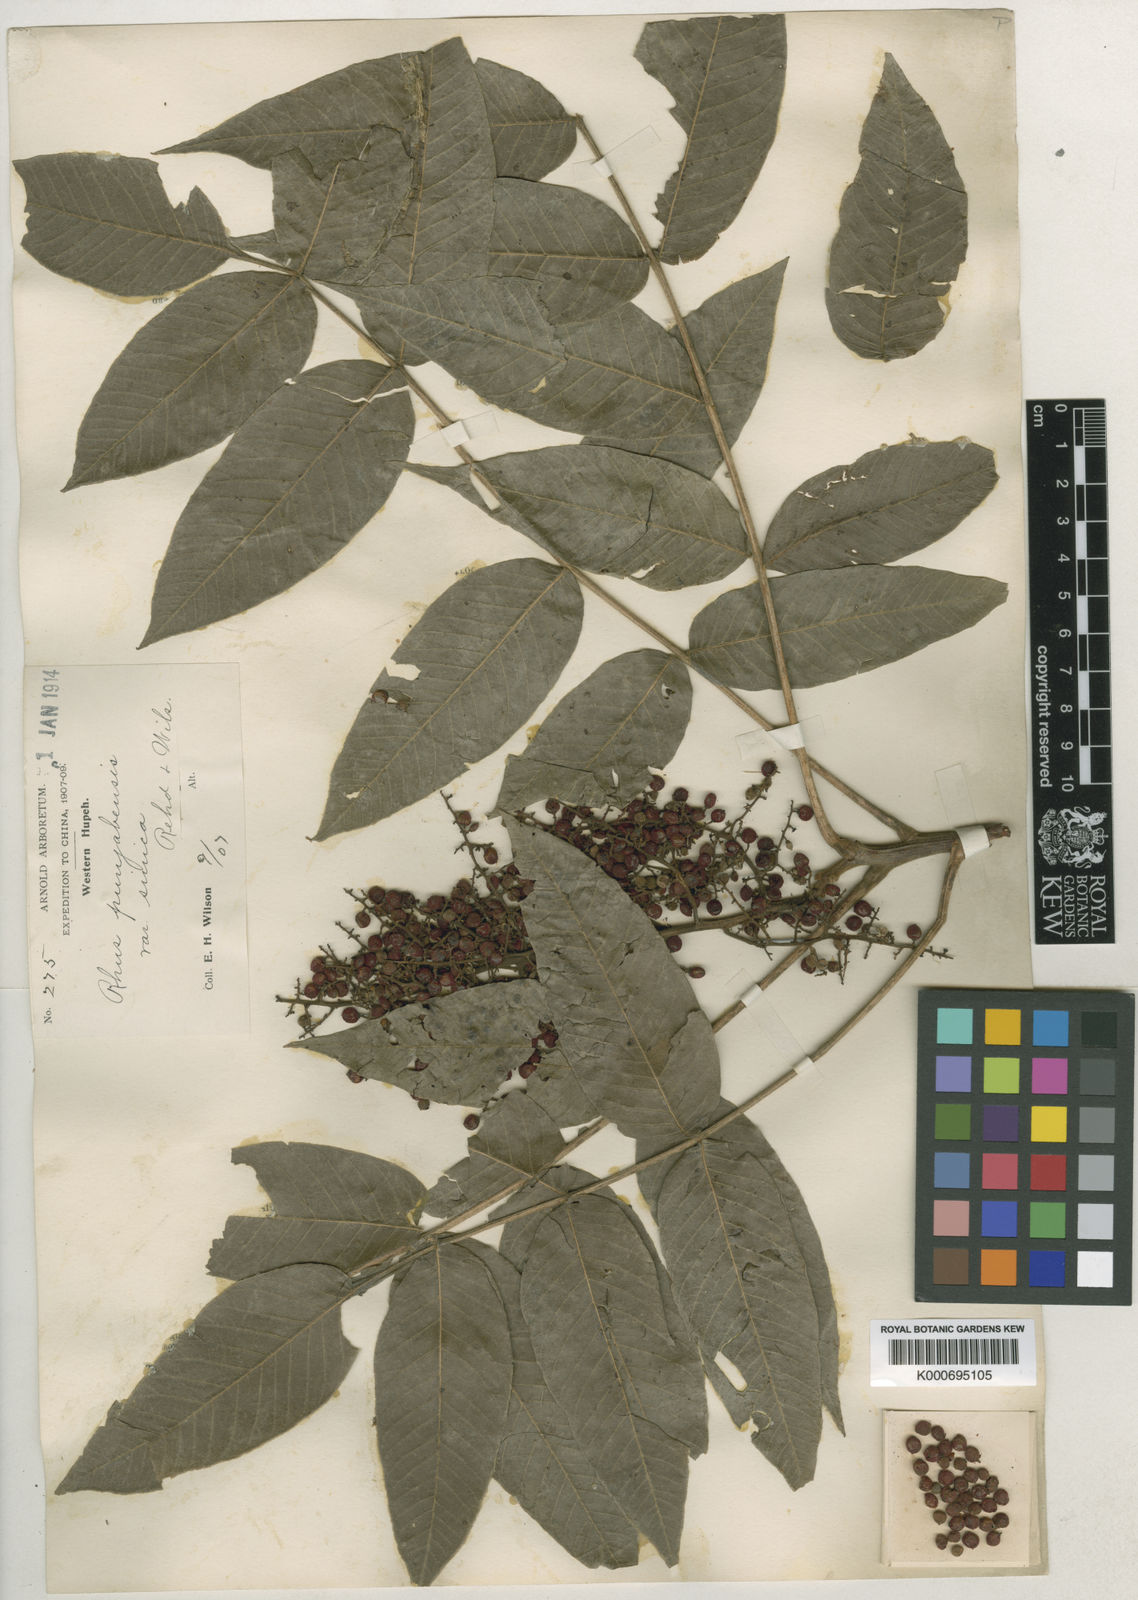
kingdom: Plantae
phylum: Tracheophyta
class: Magnoliopsida
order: Sapindales
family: Anacardiaceae
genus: Rhus
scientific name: Rhus punjabensis
